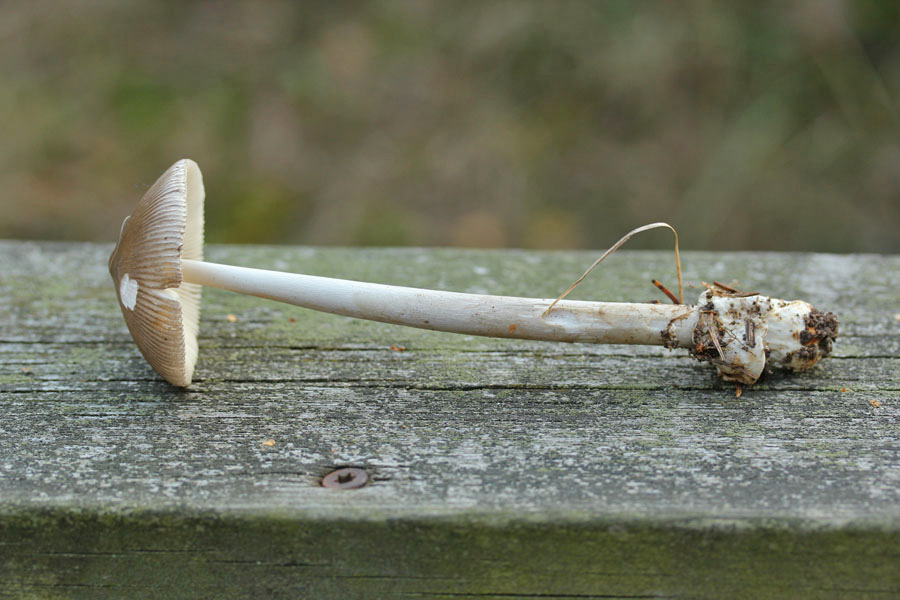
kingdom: Fungi
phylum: Basidiomycota
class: Agaricomycetes
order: Agaricales
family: Amanitaceae
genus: Amanita
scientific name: Amanita
